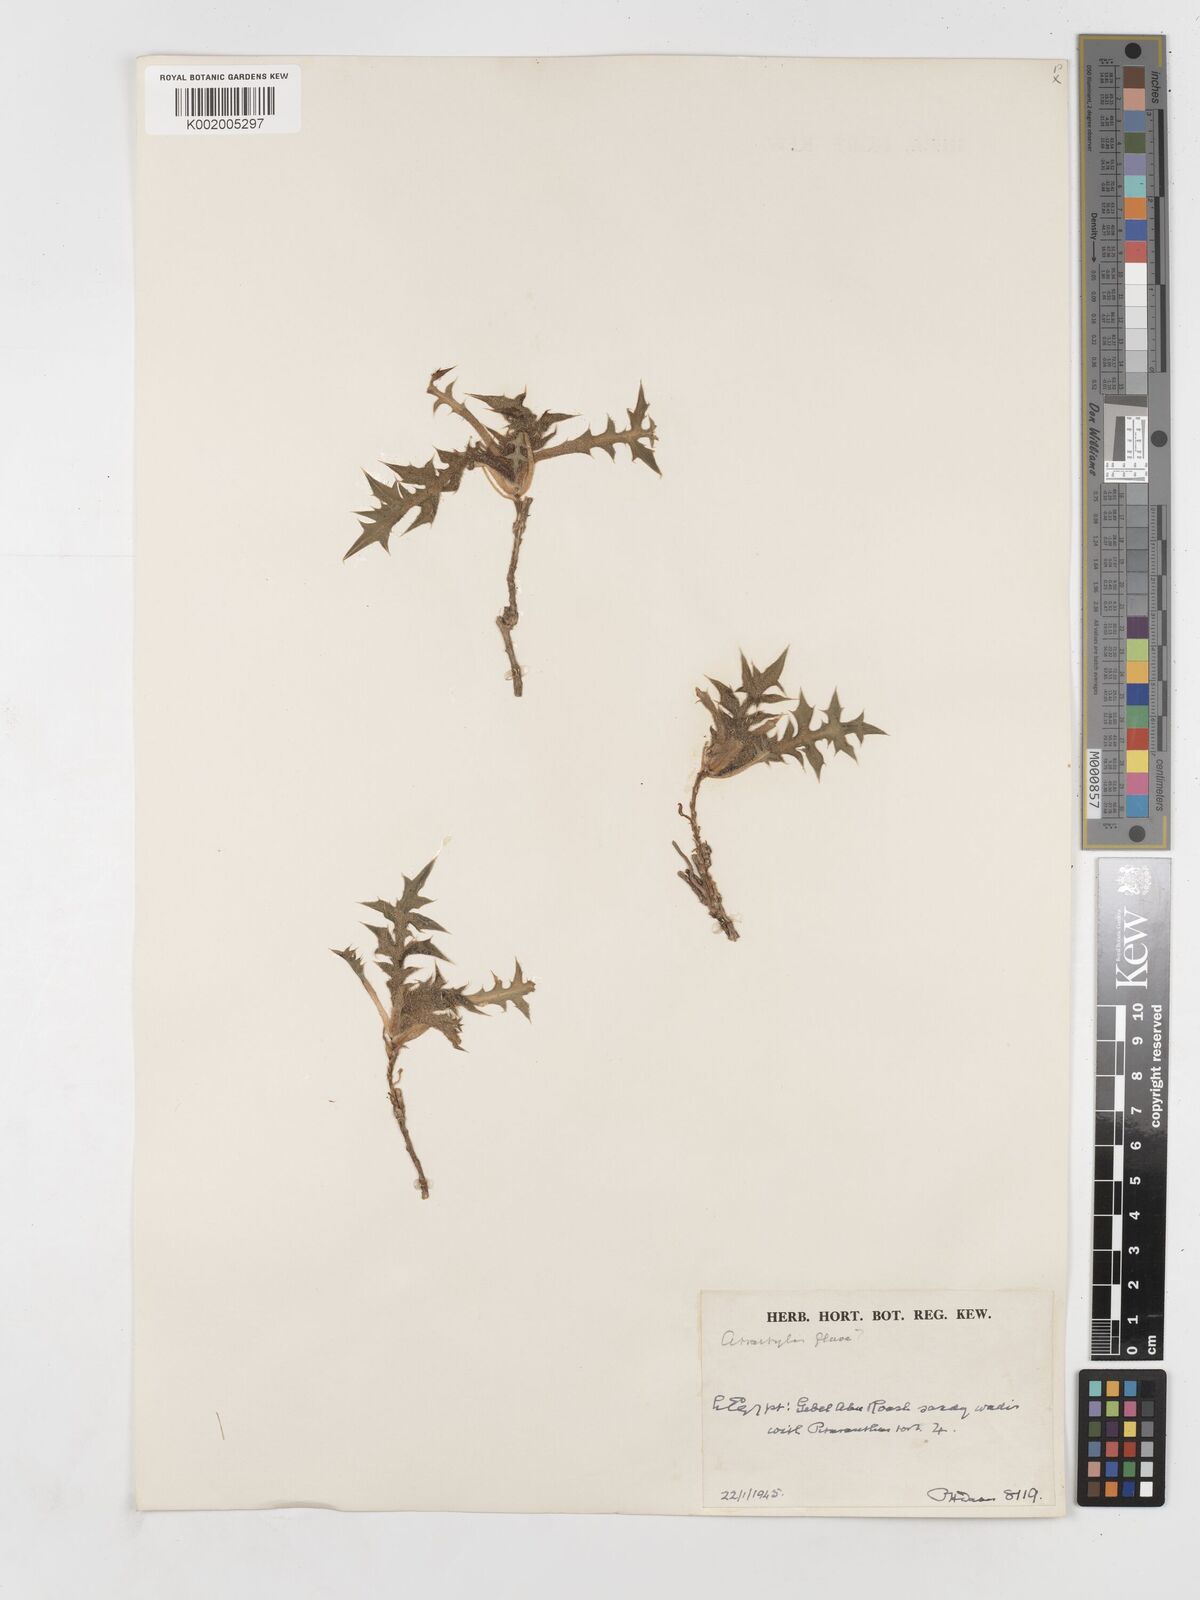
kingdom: Plantae
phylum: Tracheophyta
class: Magnoliopsida
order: Asterales
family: Asteraceae
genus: Atractylis
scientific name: Atractylis carduus
